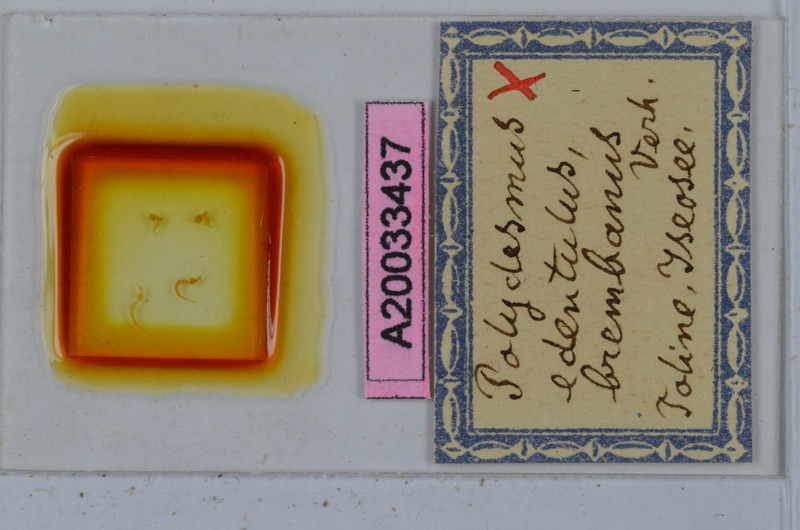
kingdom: Animalia
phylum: Arthropoda
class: Diplopoda
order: Polydesmida
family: Polydesmidae
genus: Polydesmus
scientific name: Polydesmus edentulus
